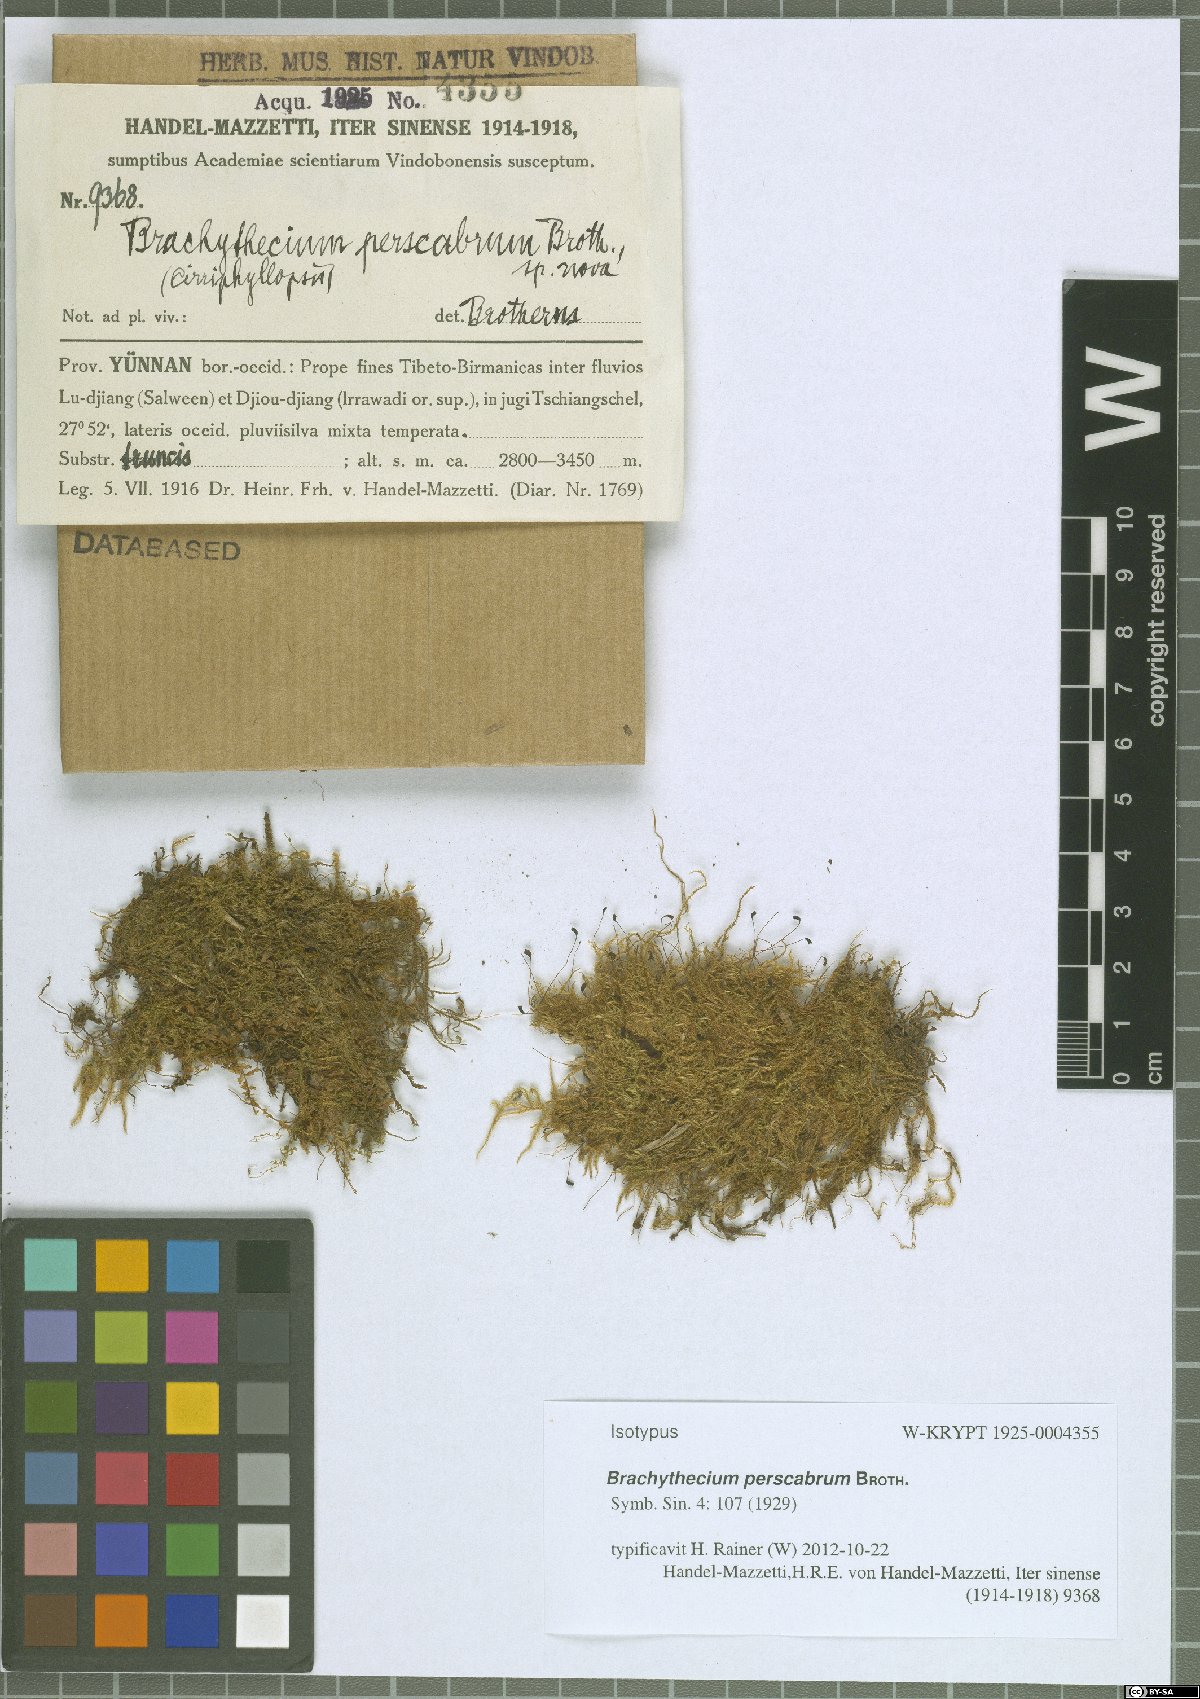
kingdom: Plantae
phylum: Bryophyta
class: Bryopsida
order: Hypnales
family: Brachytheciaceae
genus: Brachythecium
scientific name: Brachythecium perscabrum
